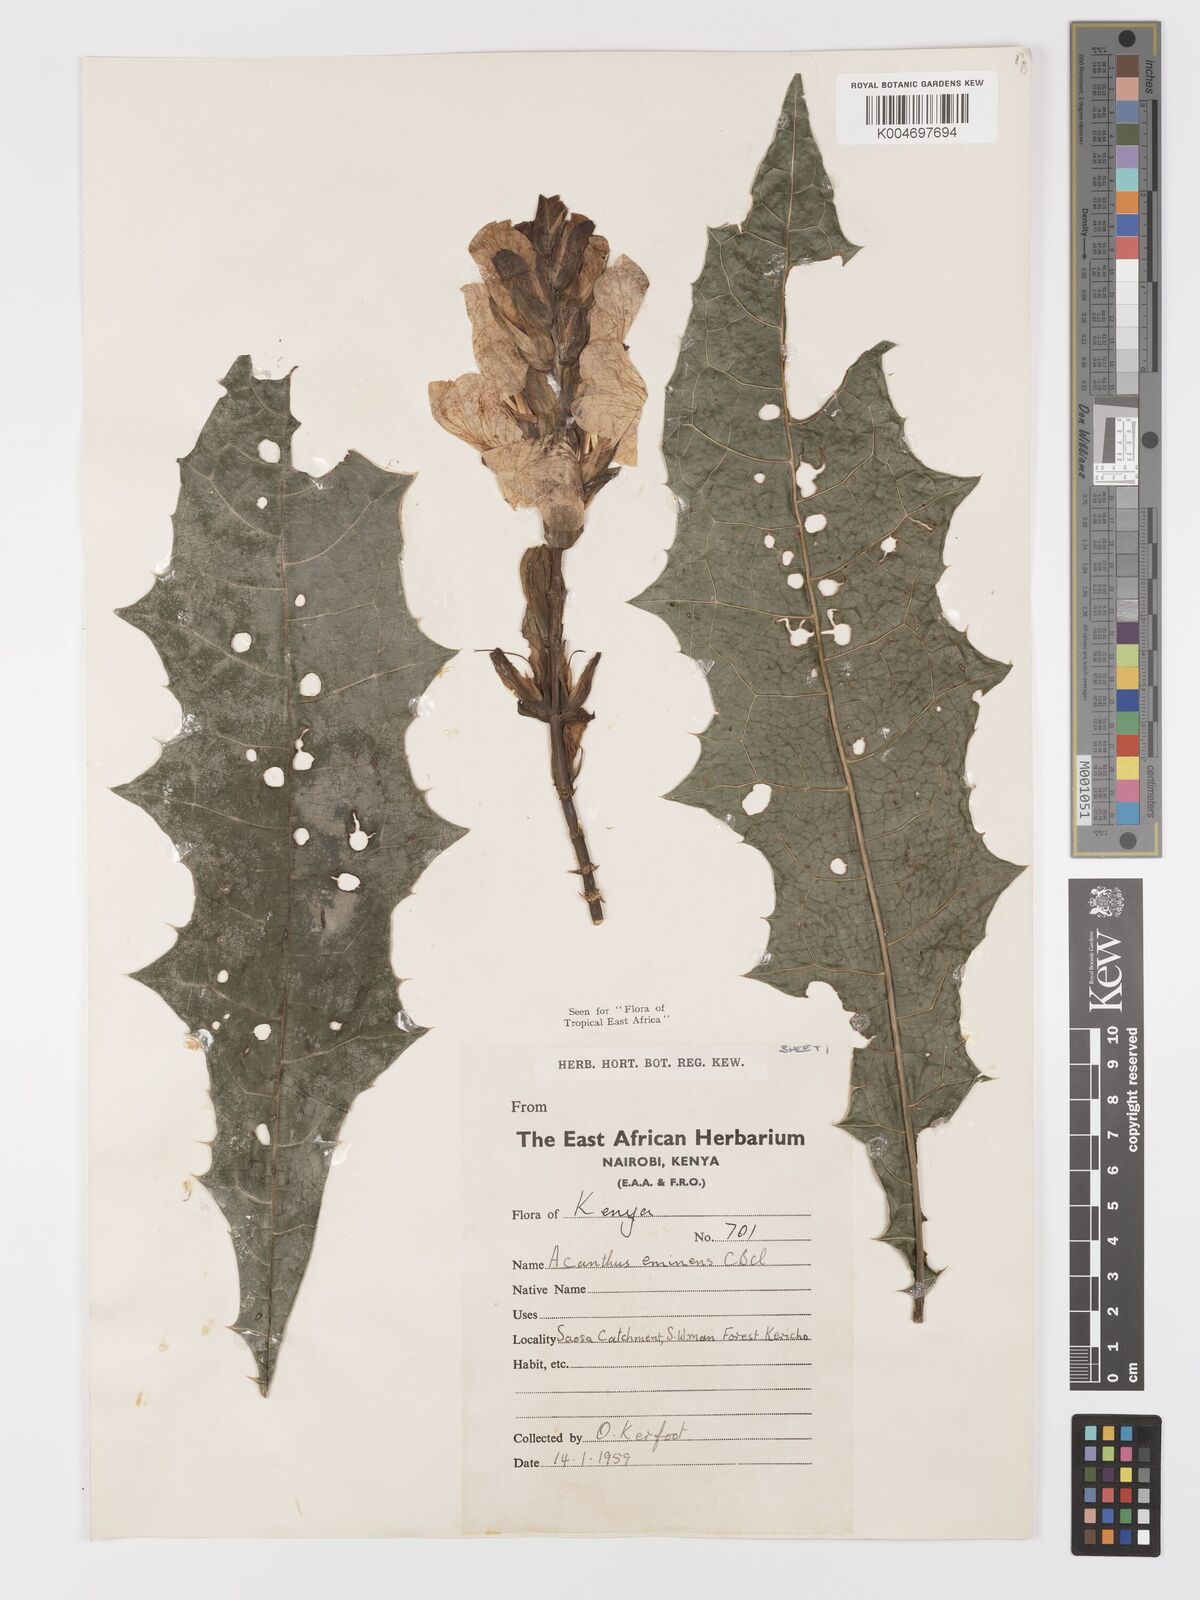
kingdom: Plantae
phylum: Tracheophyta
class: Magnoliopsida
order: Lamiales
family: Acanthaceae
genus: Acanthus
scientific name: Acanthus eminens
